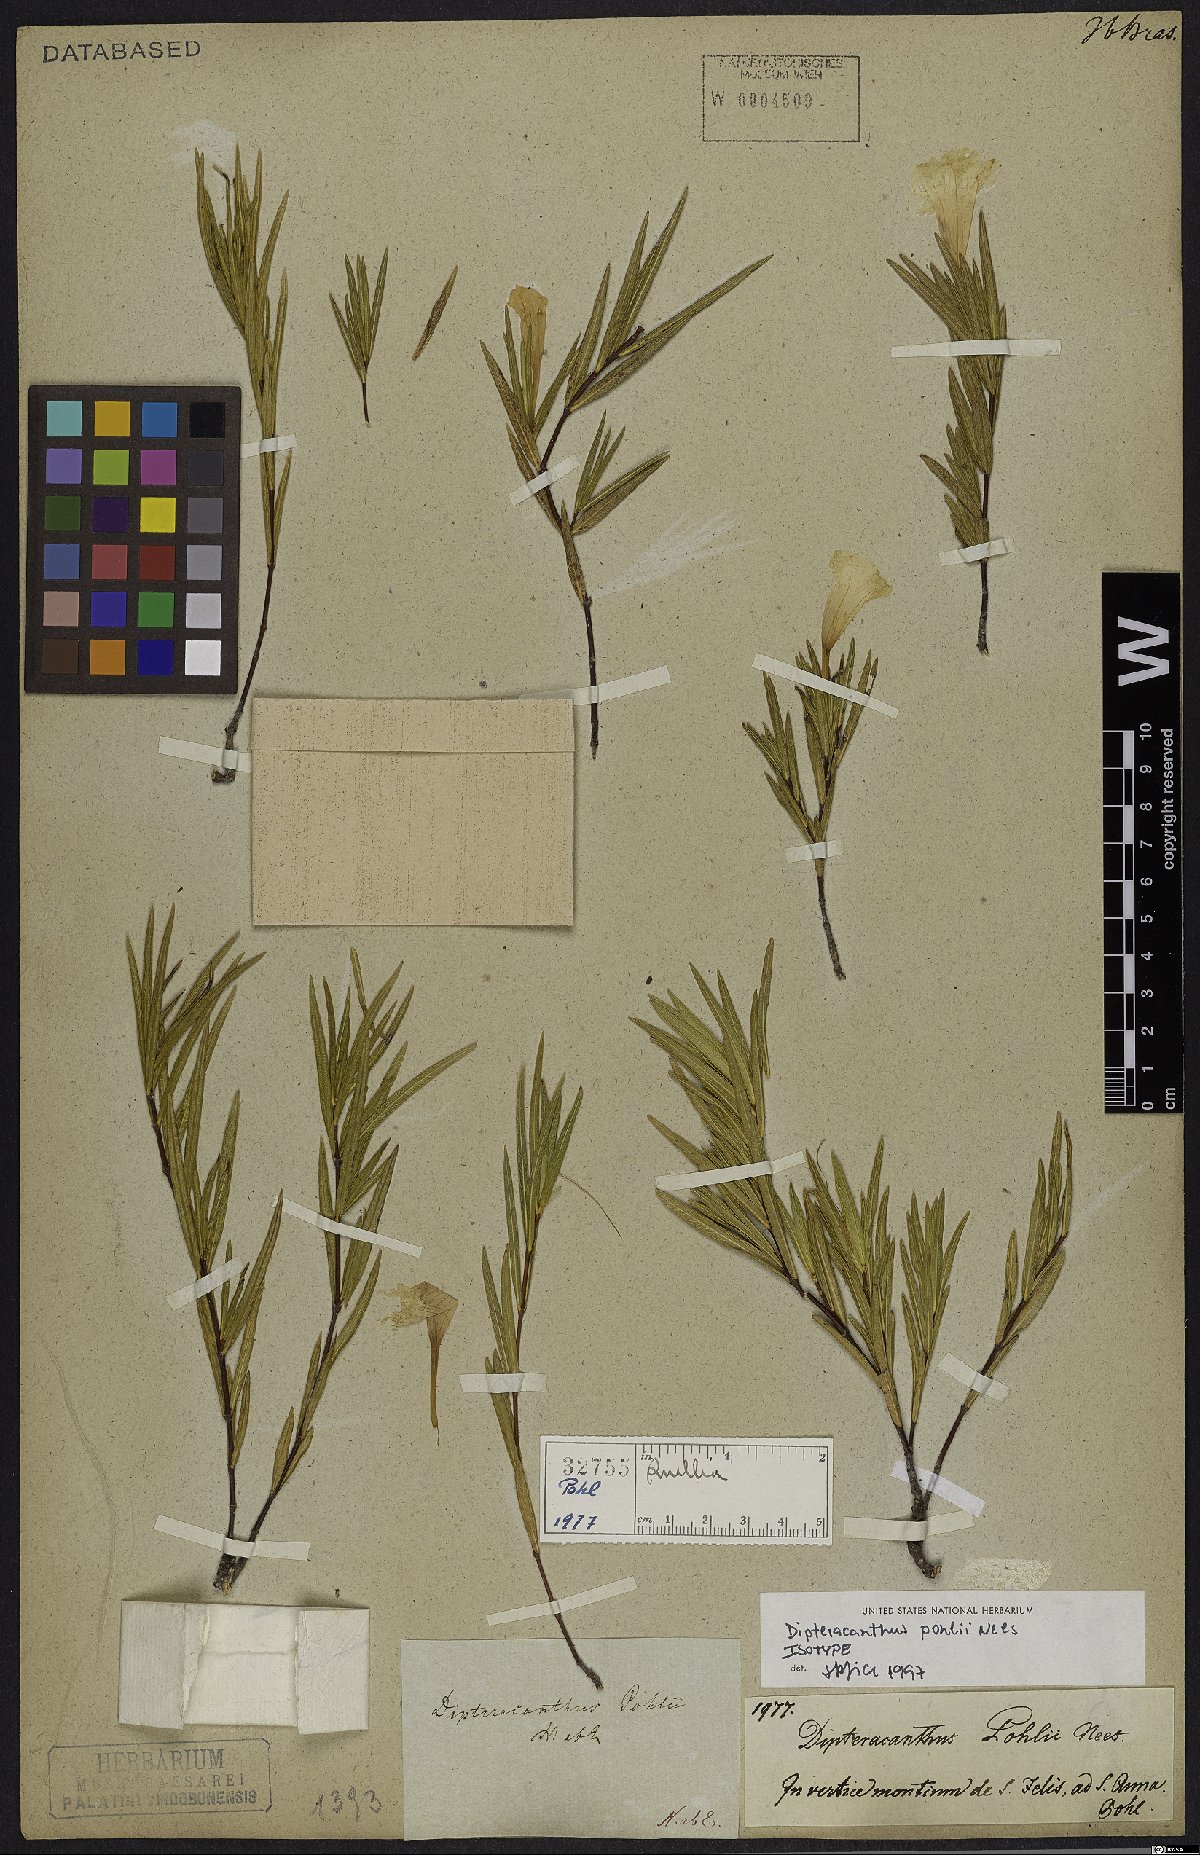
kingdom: Plantae
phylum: Tracheophyta
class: Magnoliopsida
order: Lamiales
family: Acanthaceae
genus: Ruellia
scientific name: Ruellia Dipteracanthus pohlii
